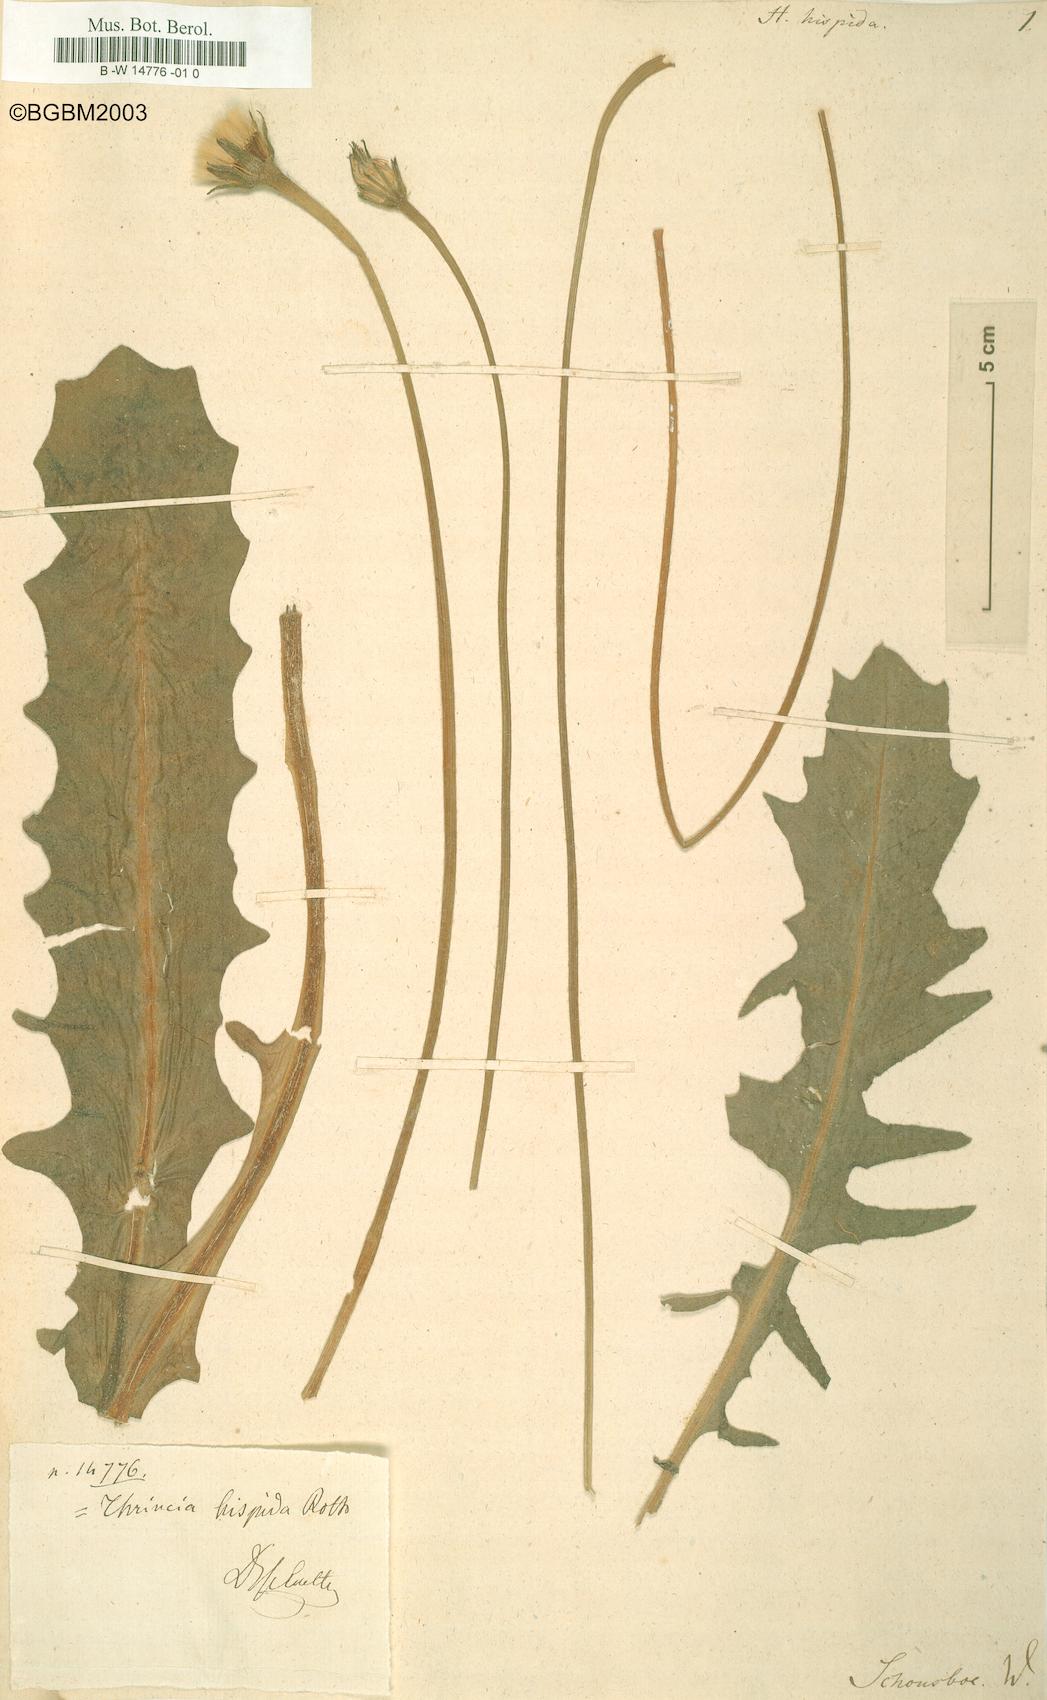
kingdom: Plantae
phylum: Tracheophyta
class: Magnoliopsida
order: Asterales
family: Asteraceae
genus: Thrincia
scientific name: Thrincia maroccana
